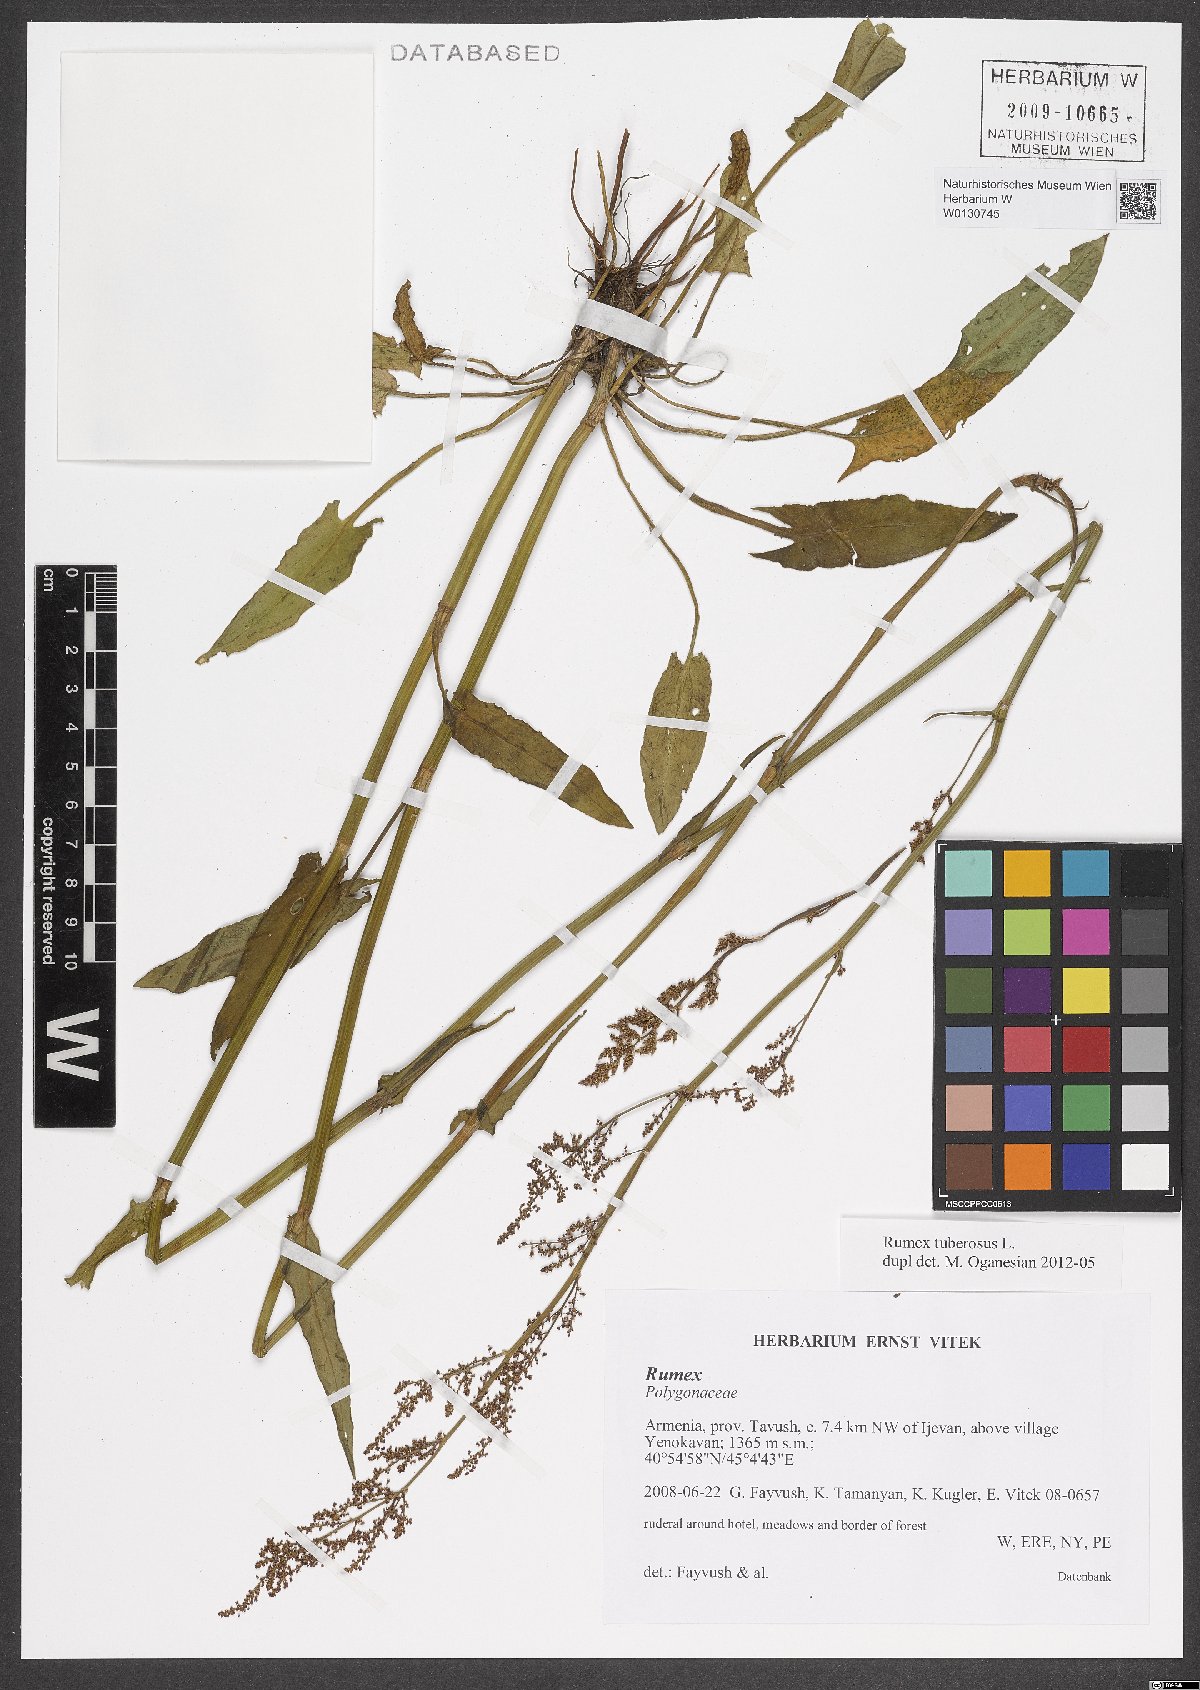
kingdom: Plantae
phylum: Tracheophyta
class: Magnoliopsida
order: Caryophyllales
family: Polygonaceae
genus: Rumex
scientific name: Rumex tuberosus
